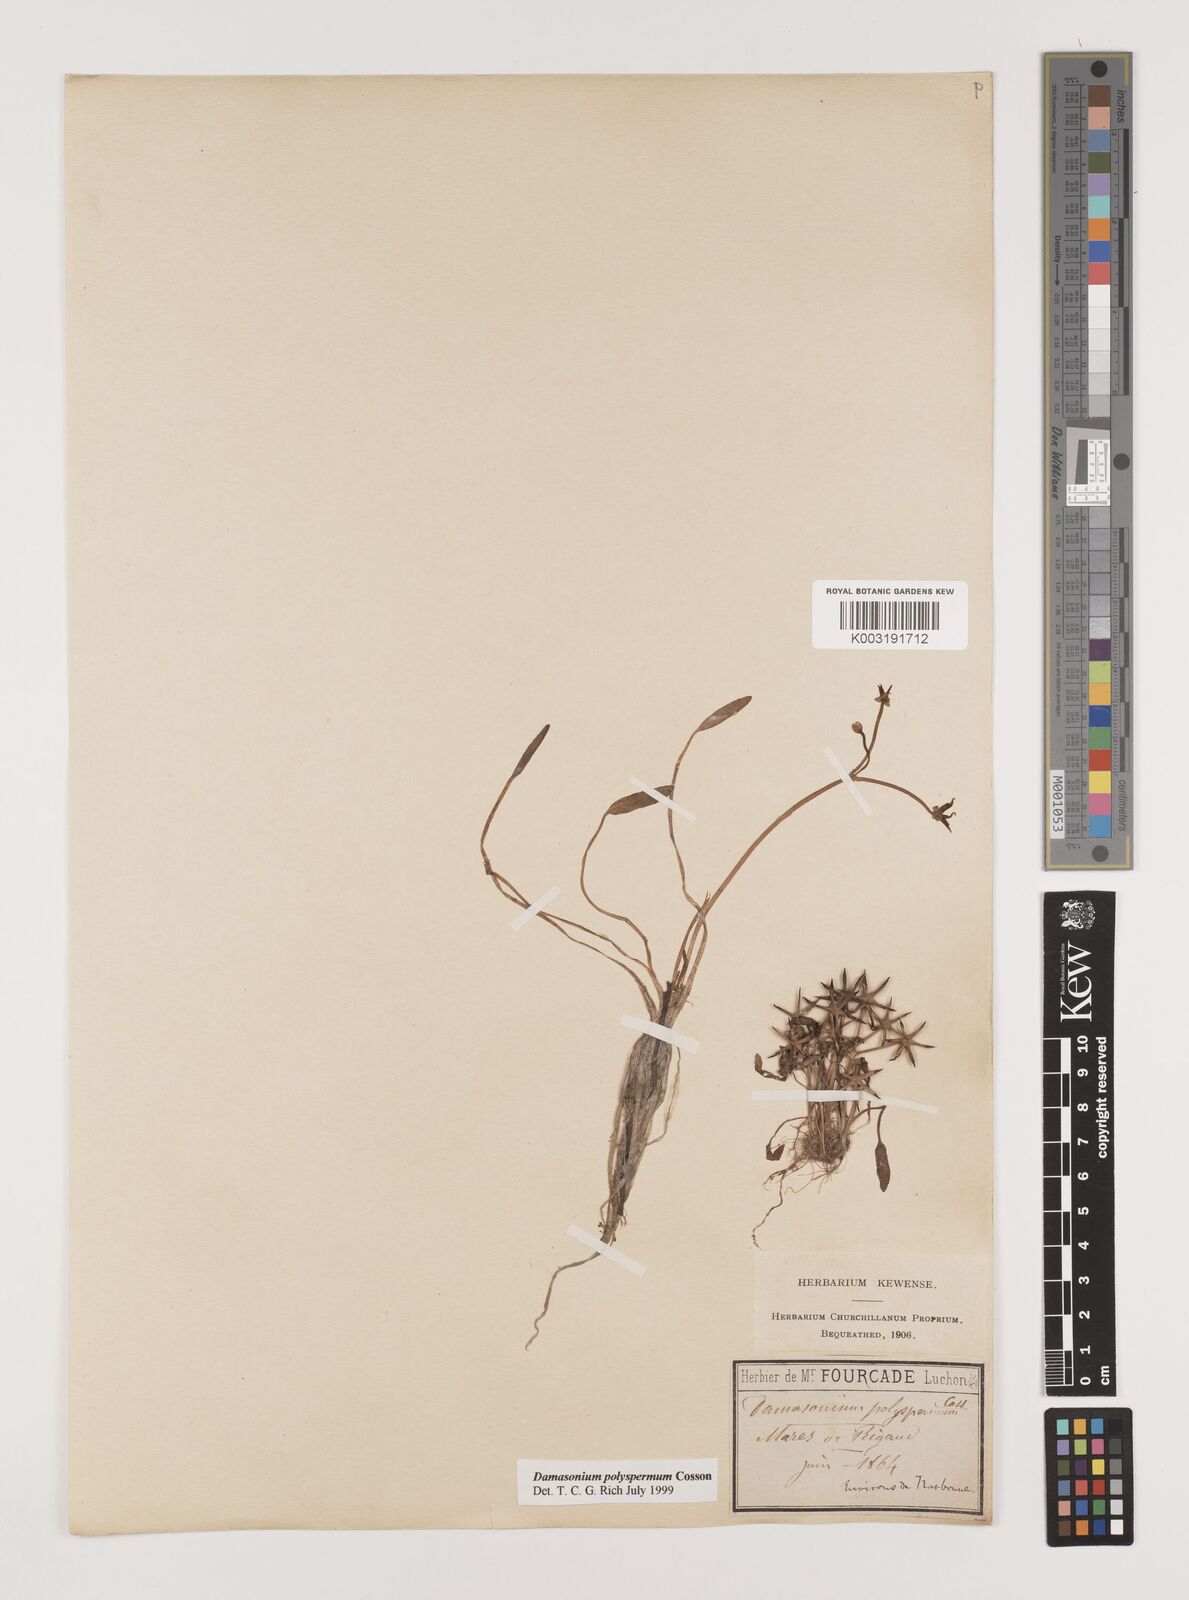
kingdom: Plantae
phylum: Tracheophyta
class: Liliopsida
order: Alismatales
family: Alismataceae
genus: Damasonium
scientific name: Damasonium polyspermum
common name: Starfruit
